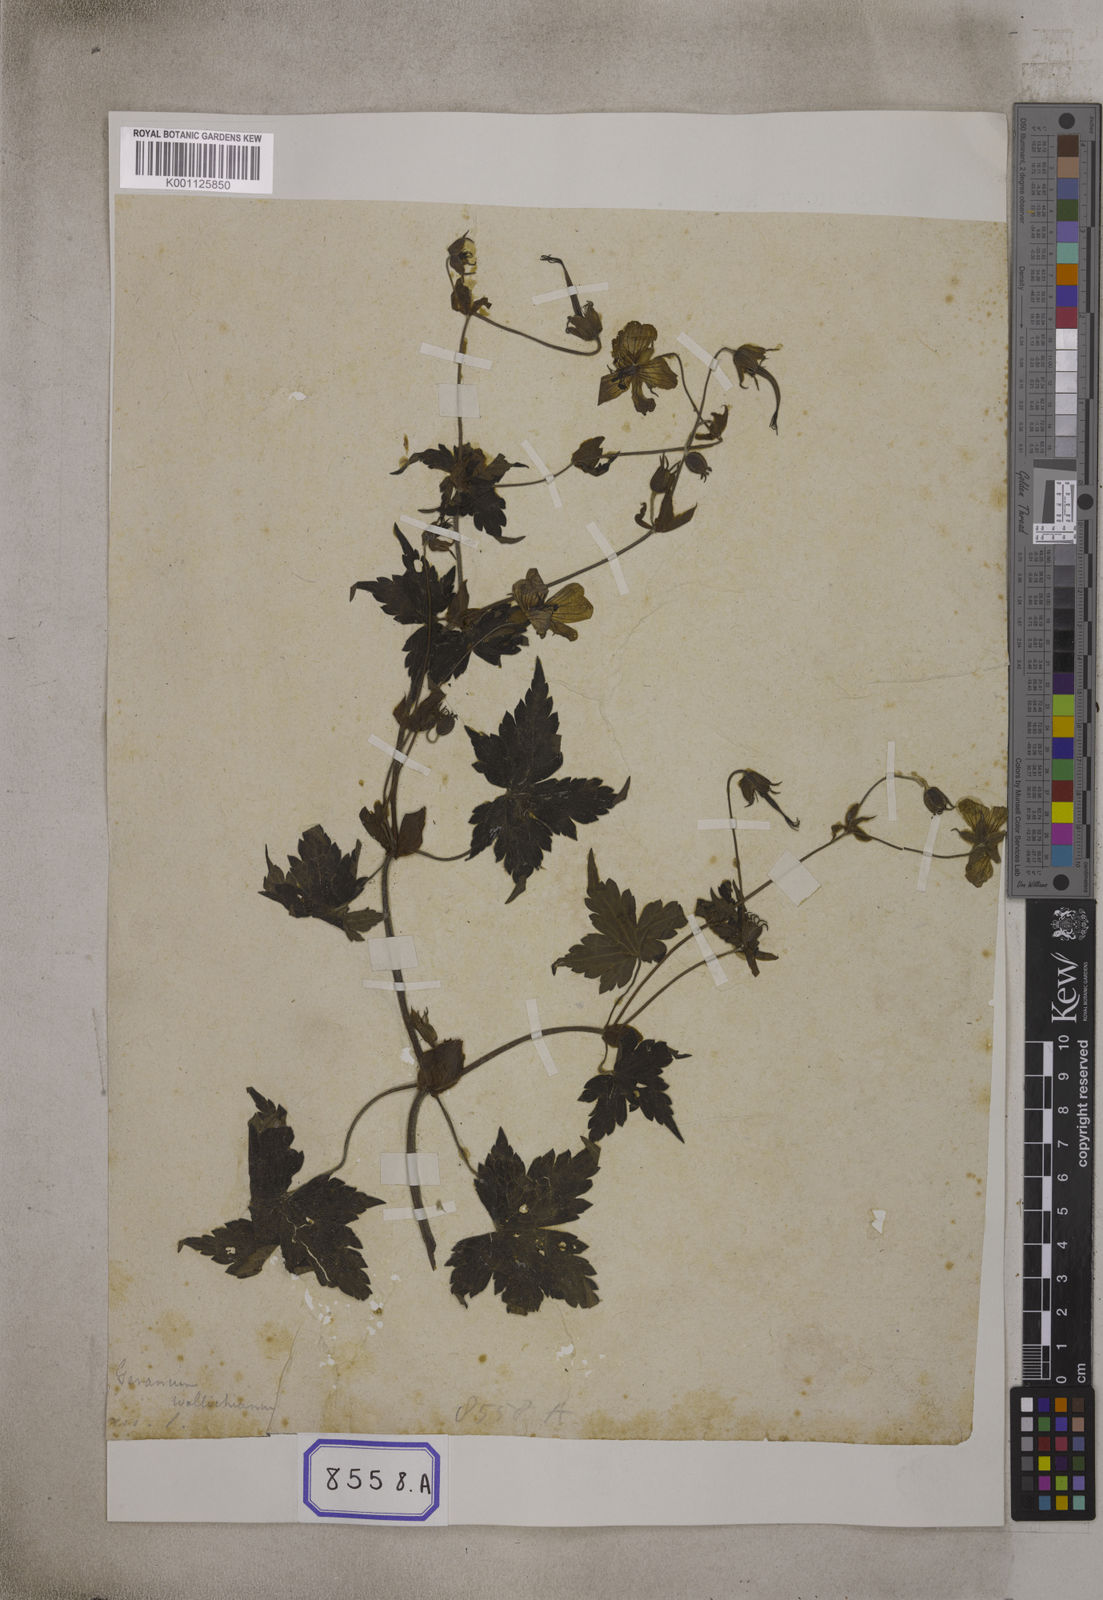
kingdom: Plantae
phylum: Tracheophyta
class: Magnoliopsida
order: Geraniales
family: Geraniaceae
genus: Geranium
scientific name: Geranium
